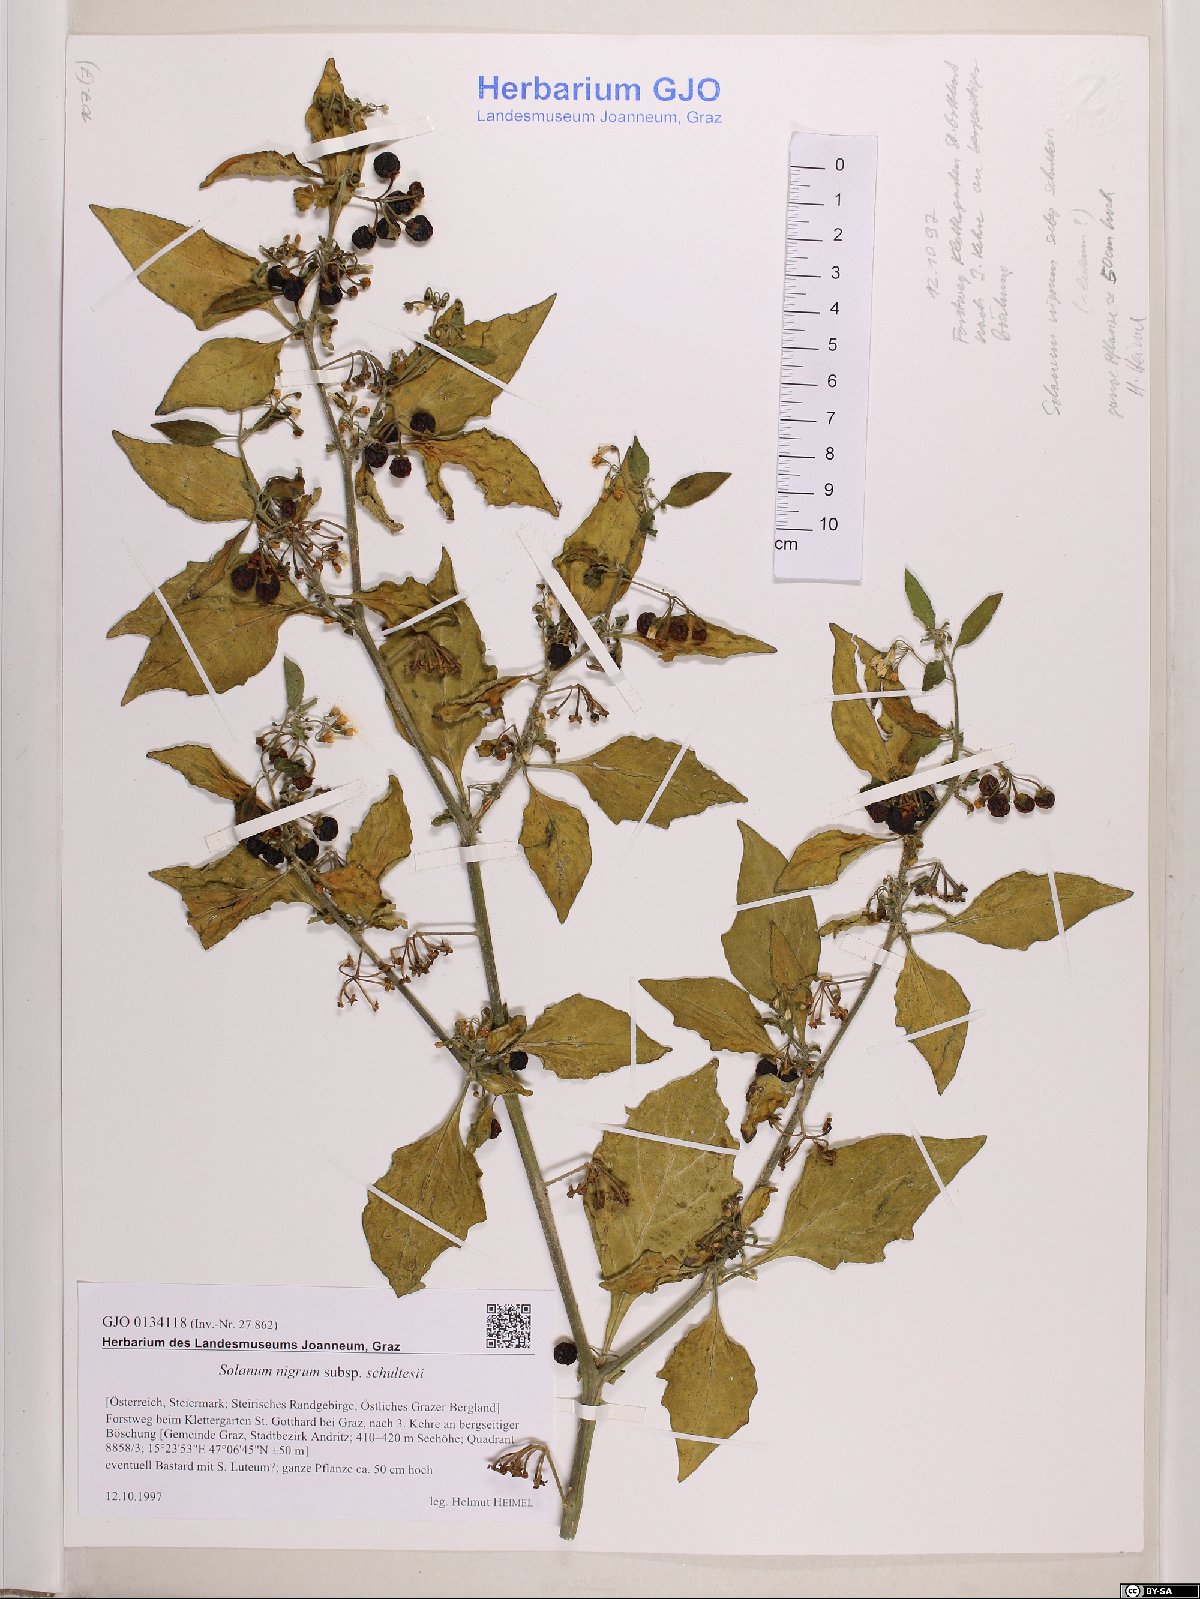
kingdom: Plantae
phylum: Tracheophyta
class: Magnoliopsida
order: Solanales
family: Solanaceae
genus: Solanum
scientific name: Solanum decipiens
